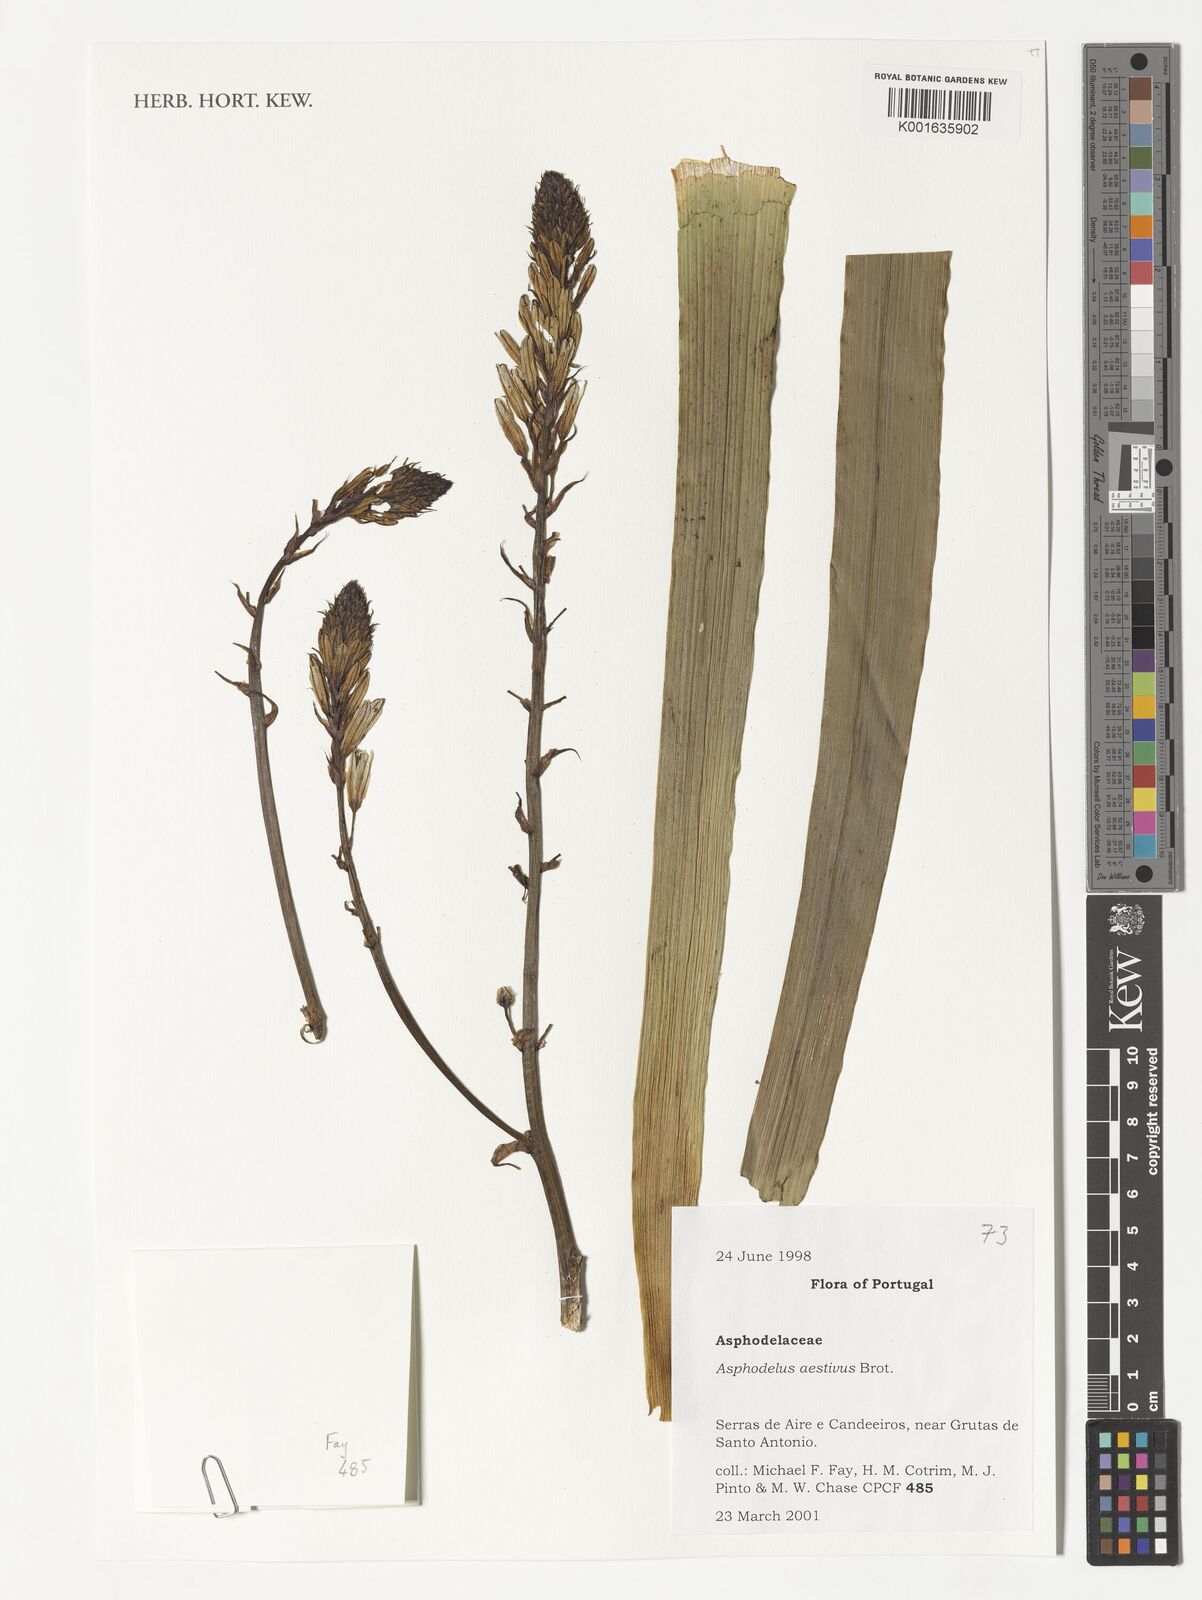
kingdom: Plantae
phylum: Tracheophyta
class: Liliopsida
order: Asparagales
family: Asphodelaceae
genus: Asphodelus
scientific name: Asphodelus aestivus
